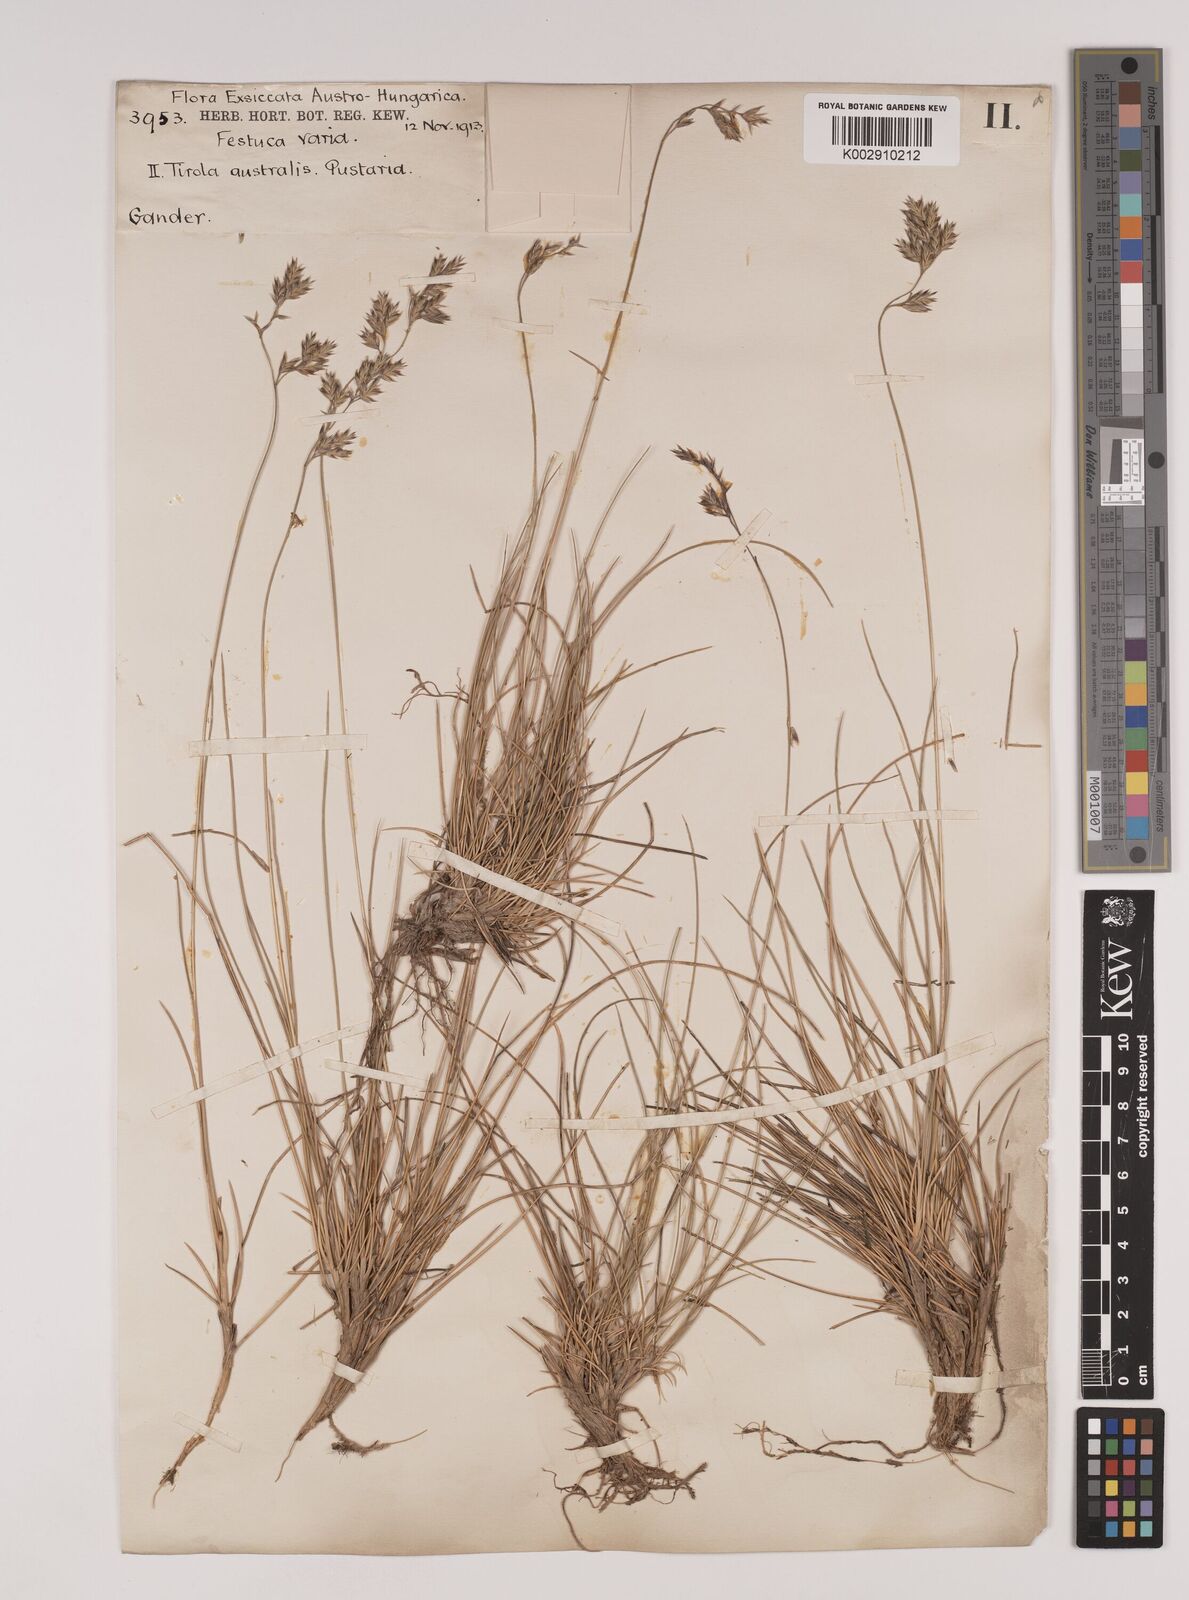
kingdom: Plantae
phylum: Tracheophyta
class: Liliopsida
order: Poales
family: Poaceae
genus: Festuca
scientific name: Festuca varia
